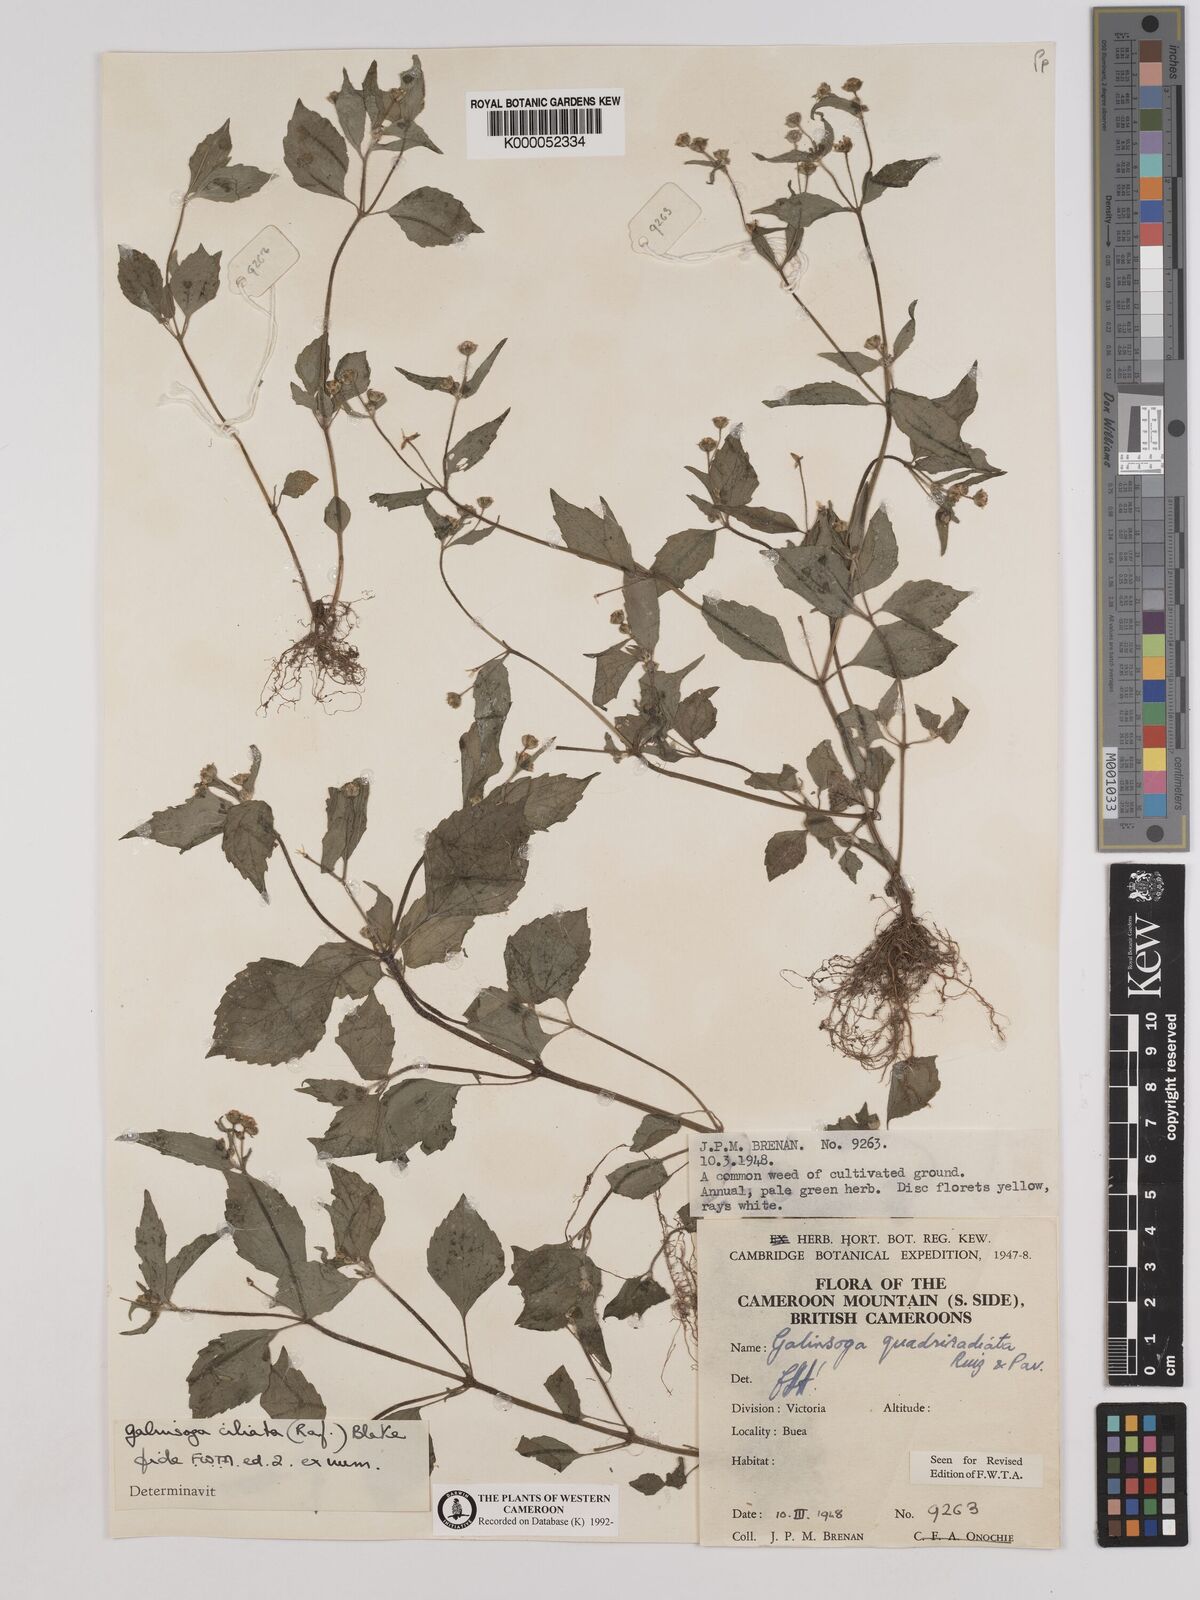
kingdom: Plantae
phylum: Tracheophyta
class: Magnoliopsida
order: Asterales
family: Asteraceae
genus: Galinsoga
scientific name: Galinsoga quadriradiata
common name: Shaggy soldier
